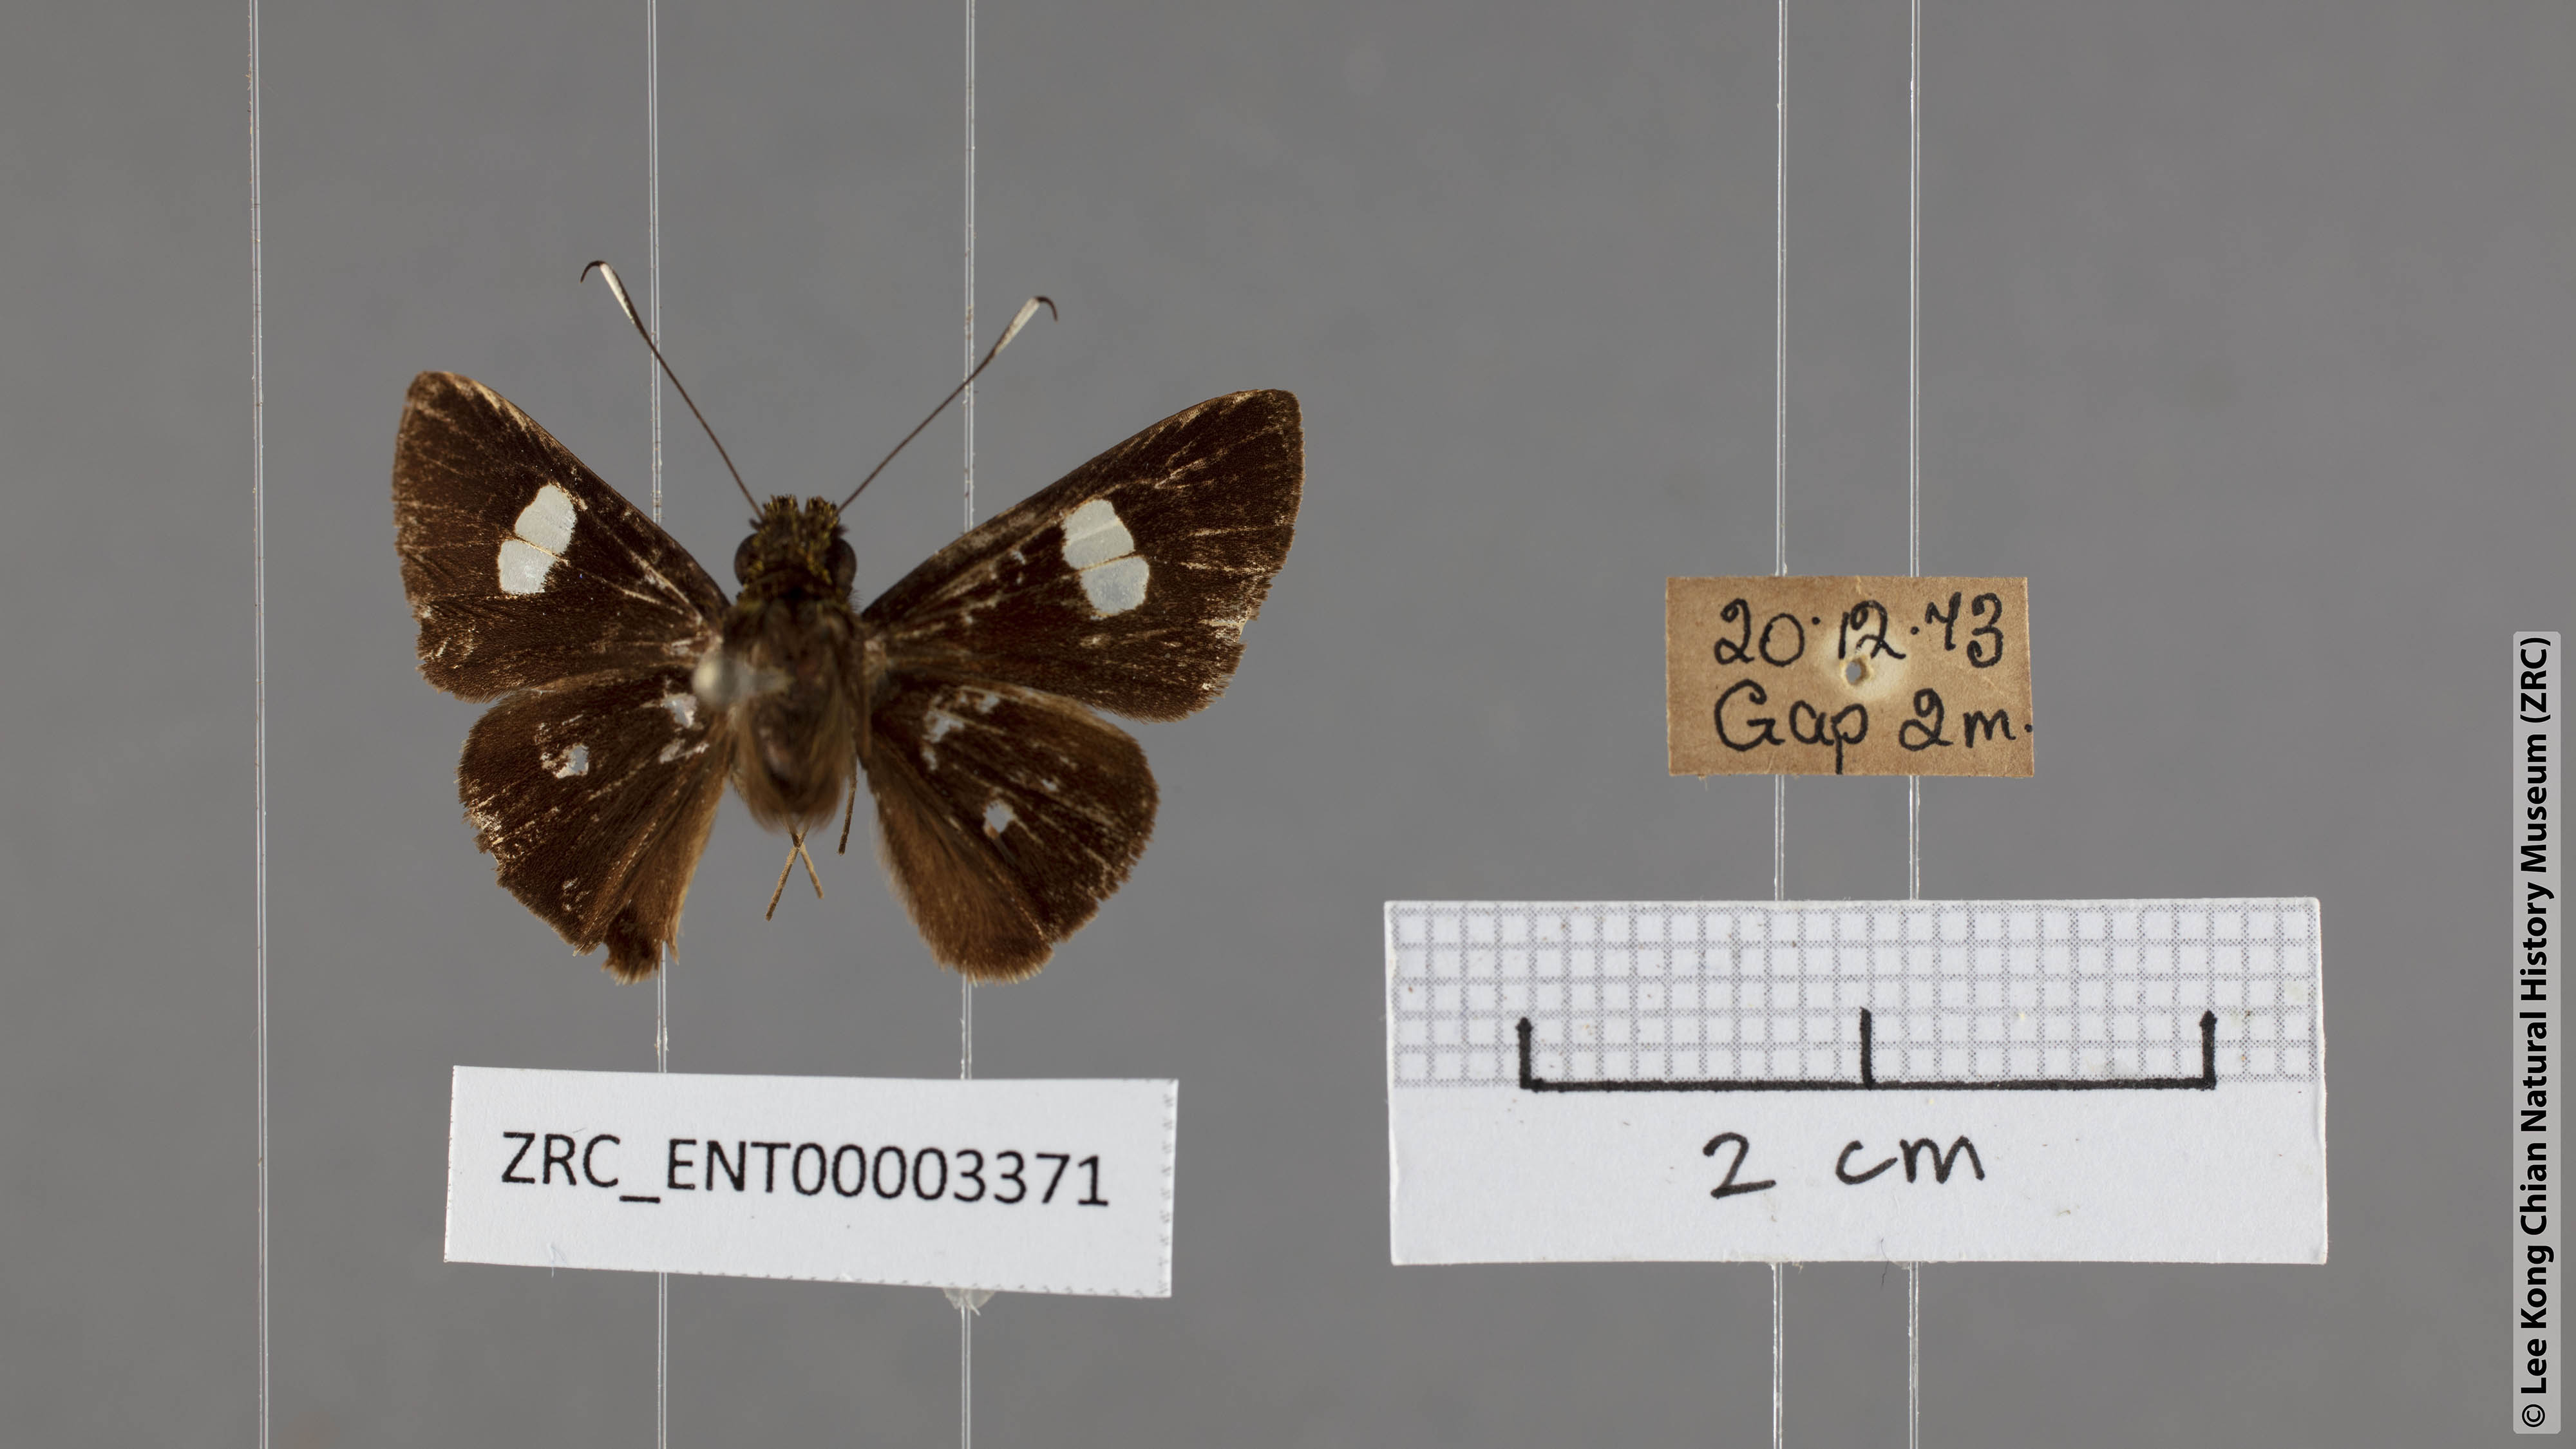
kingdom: Animalia
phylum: Arthropoda
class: Insecta
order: Lepidoptera
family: Hesperiidae
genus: Oerane
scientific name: Oerane microthyrus
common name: White club flitter
